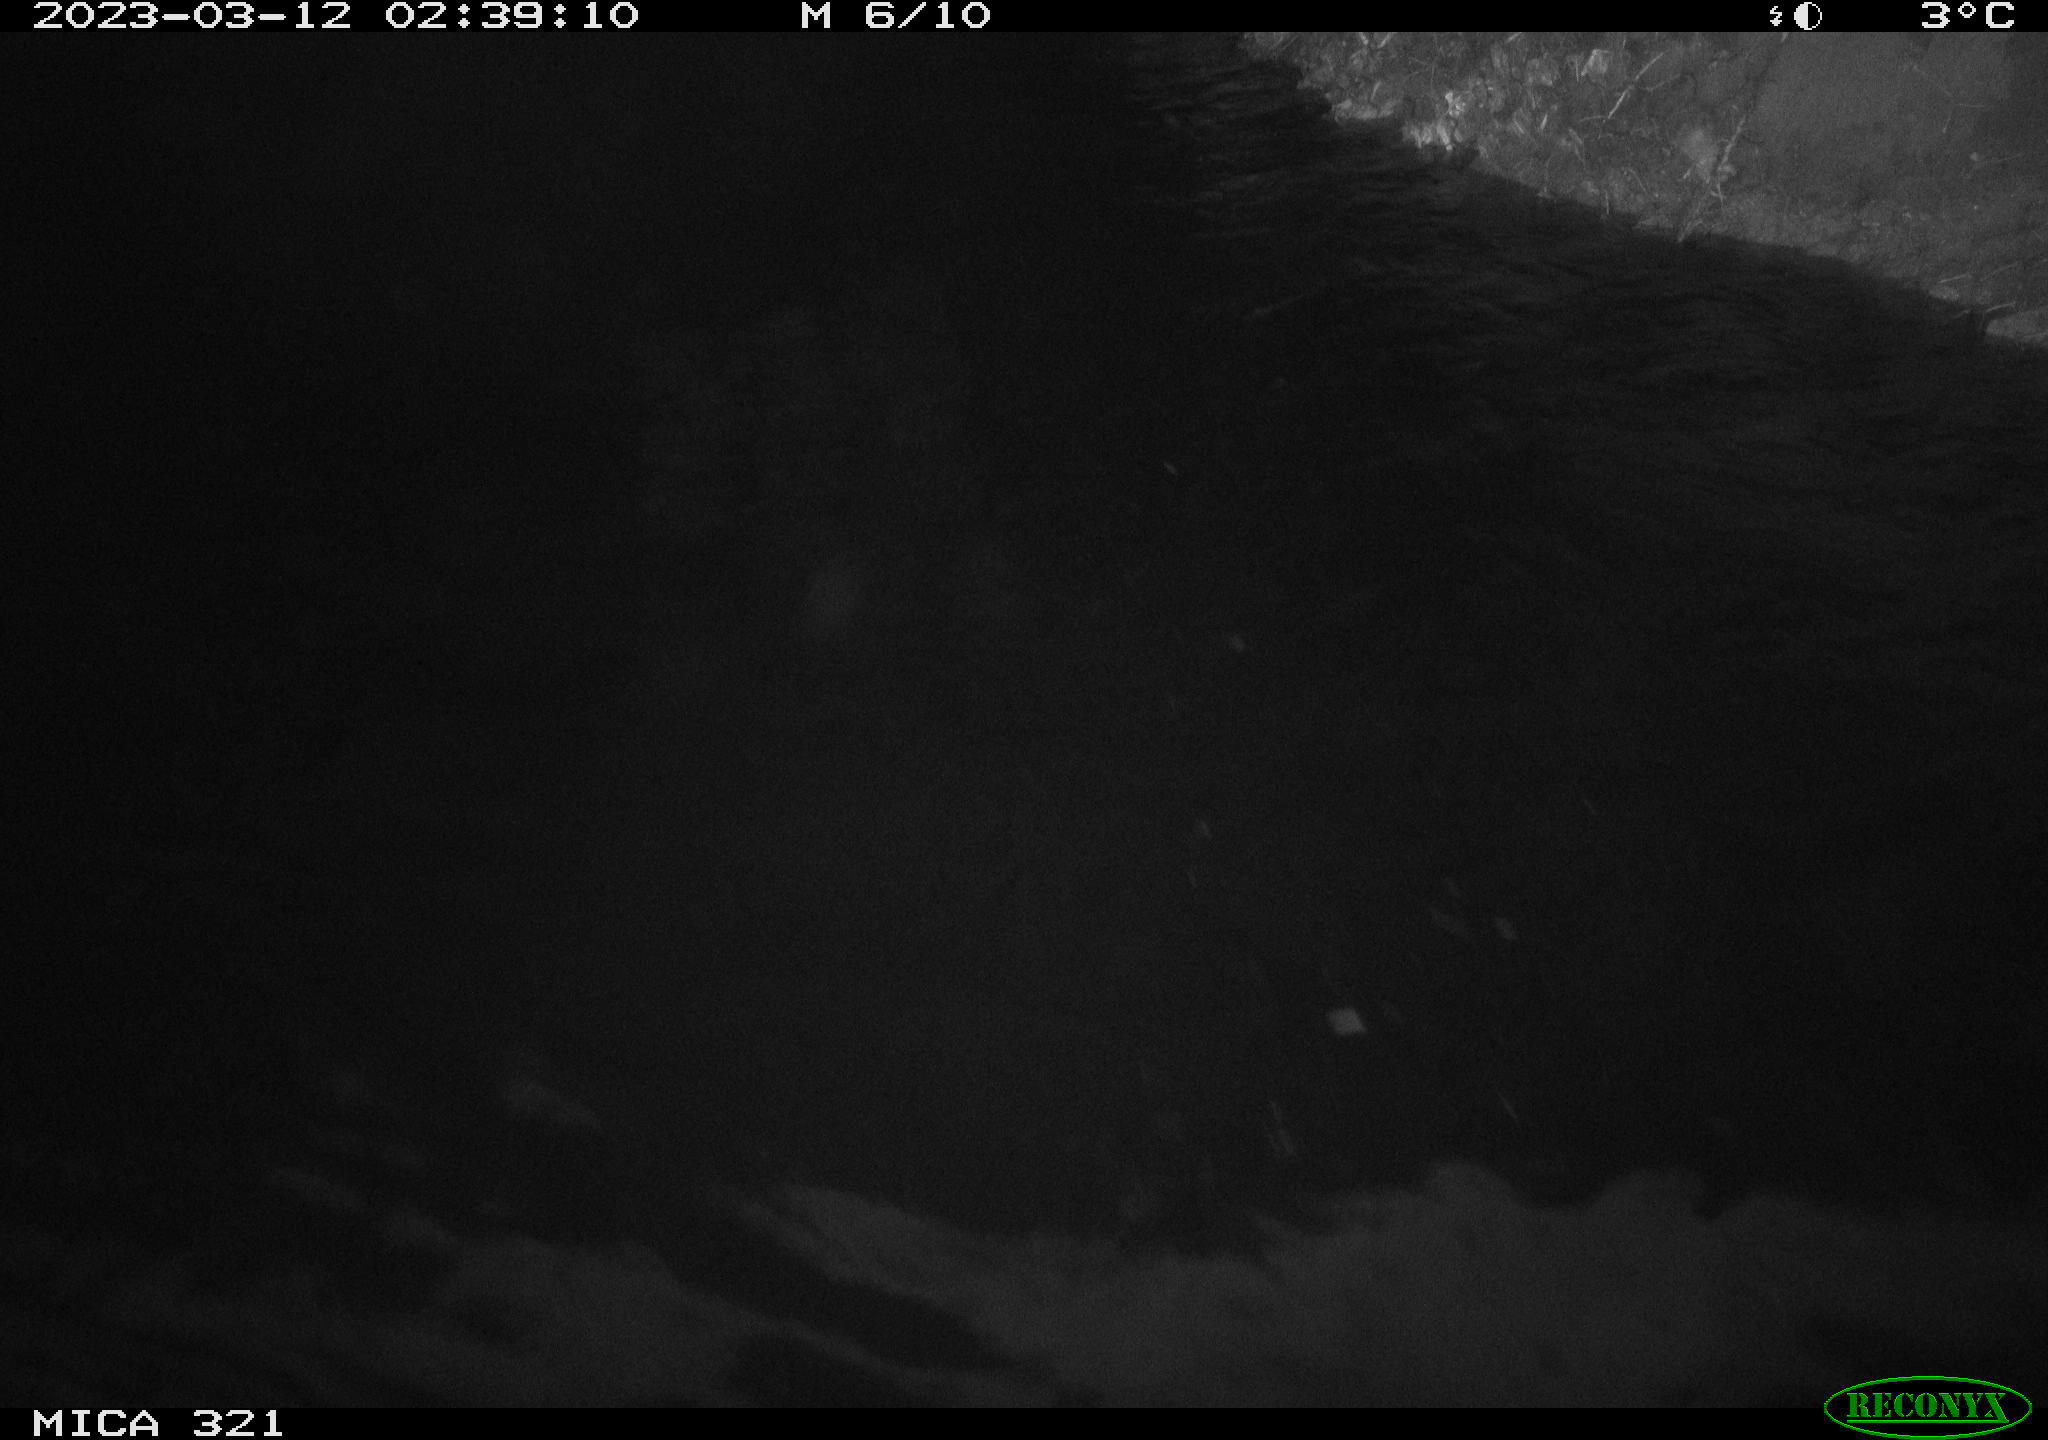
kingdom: Animalia
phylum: Chordata
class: Aves
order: Anseriformes
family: Anatidae
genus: Anas
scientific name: Anas
